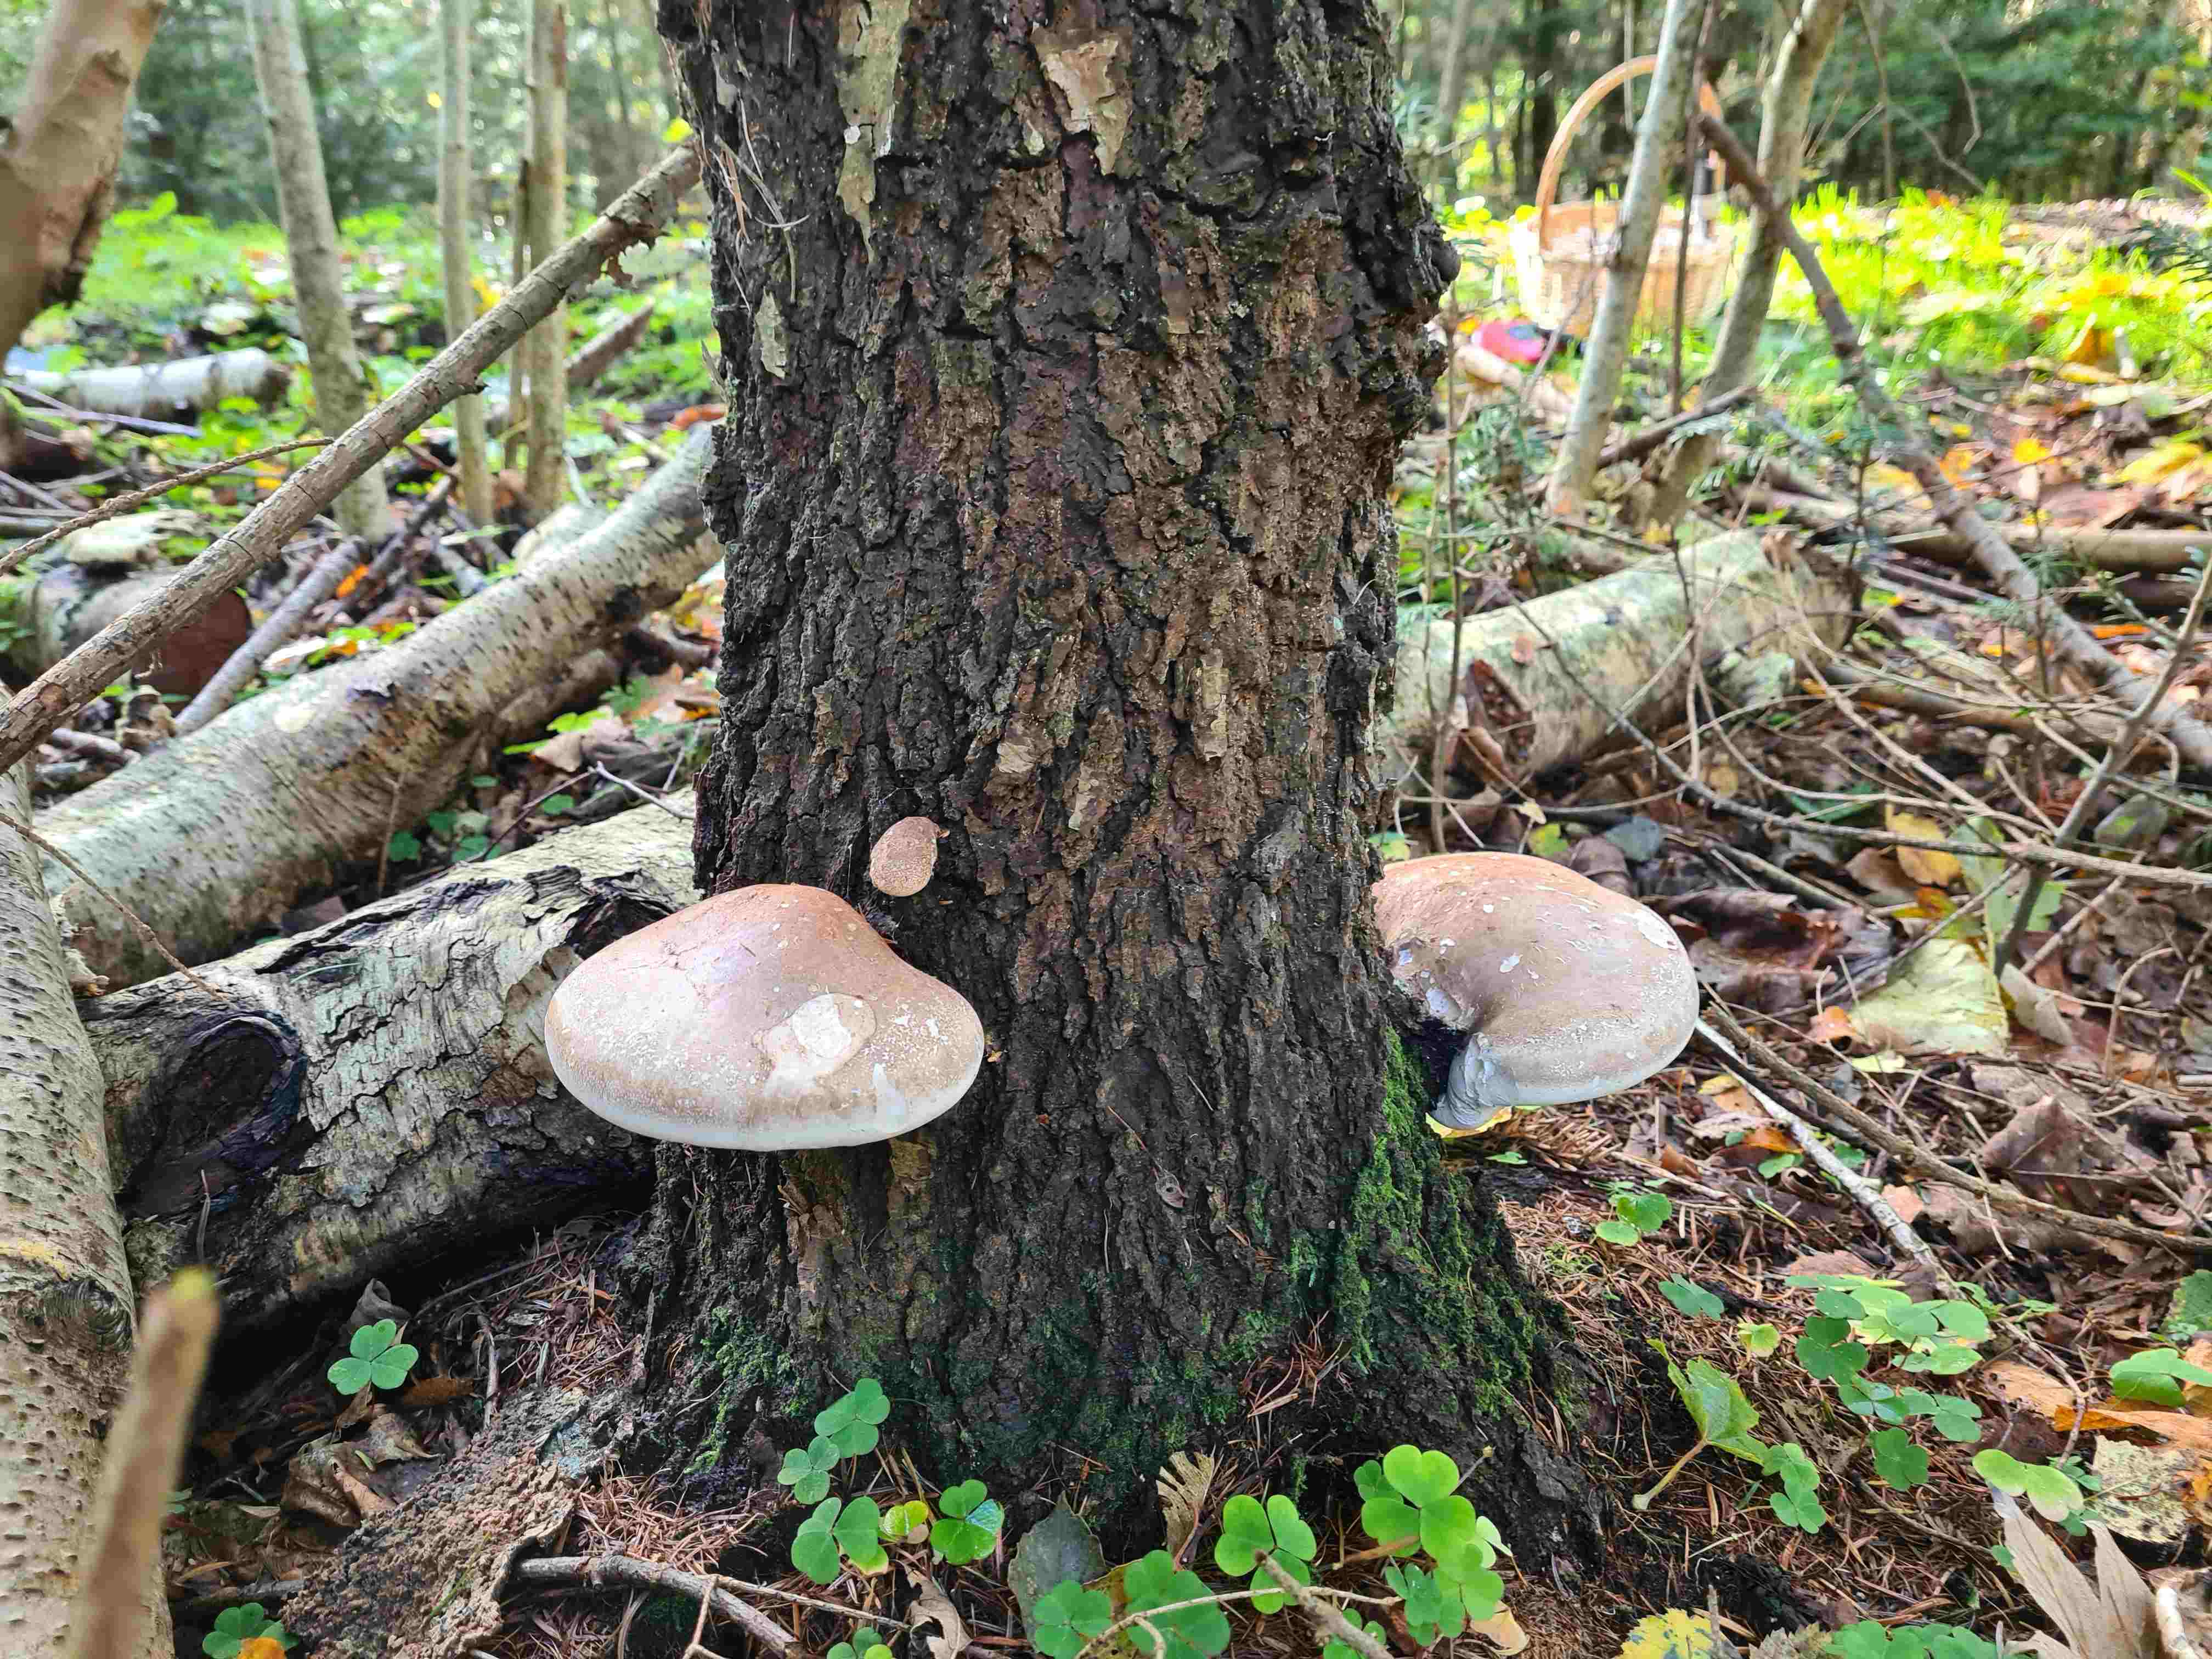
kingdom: Fungi
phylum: Basidiomycota
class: Agaricomycetes
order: Polyporales
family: Fomitopsidaceae
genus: Fomitopsis
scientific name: Fomitopsis betulina
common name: birkeporesvamp
